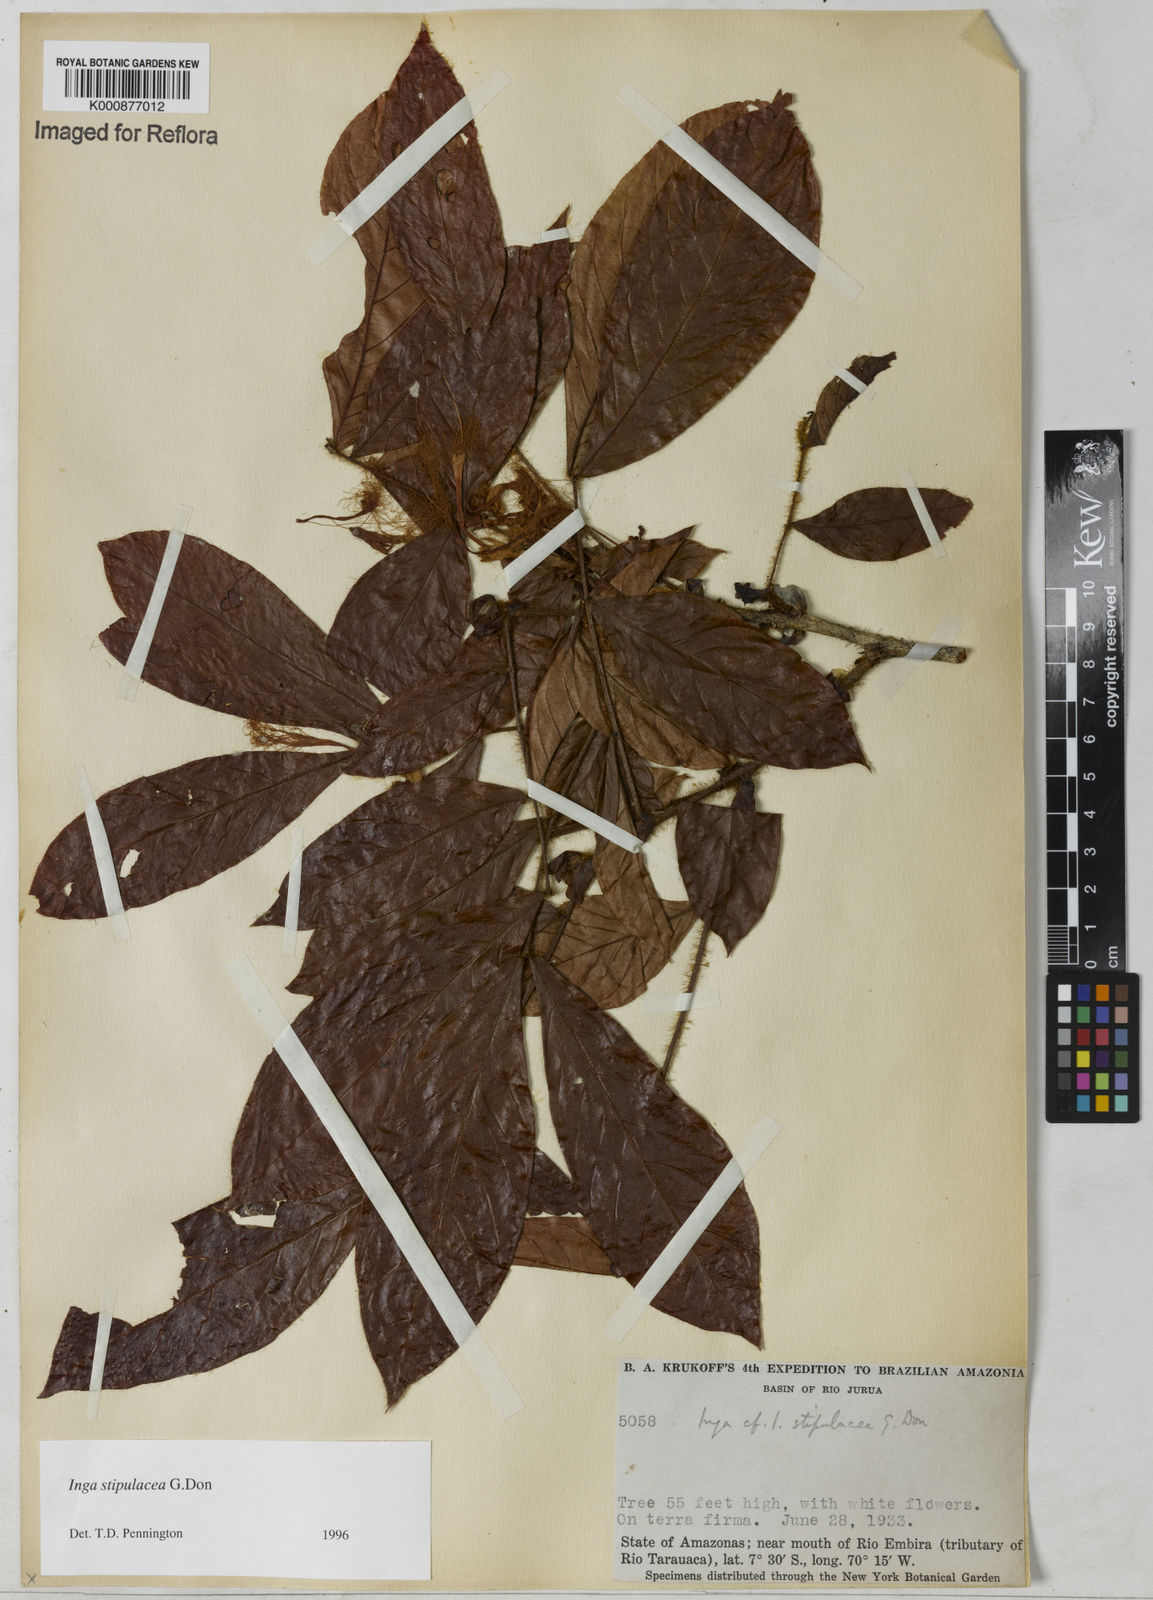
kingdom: Plantae
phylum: Tracheophyta
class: Magnoliopsida
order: Fabales
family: Fabaceae
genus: Inga
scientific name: Inga stipulacea
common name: Stipulate inga
